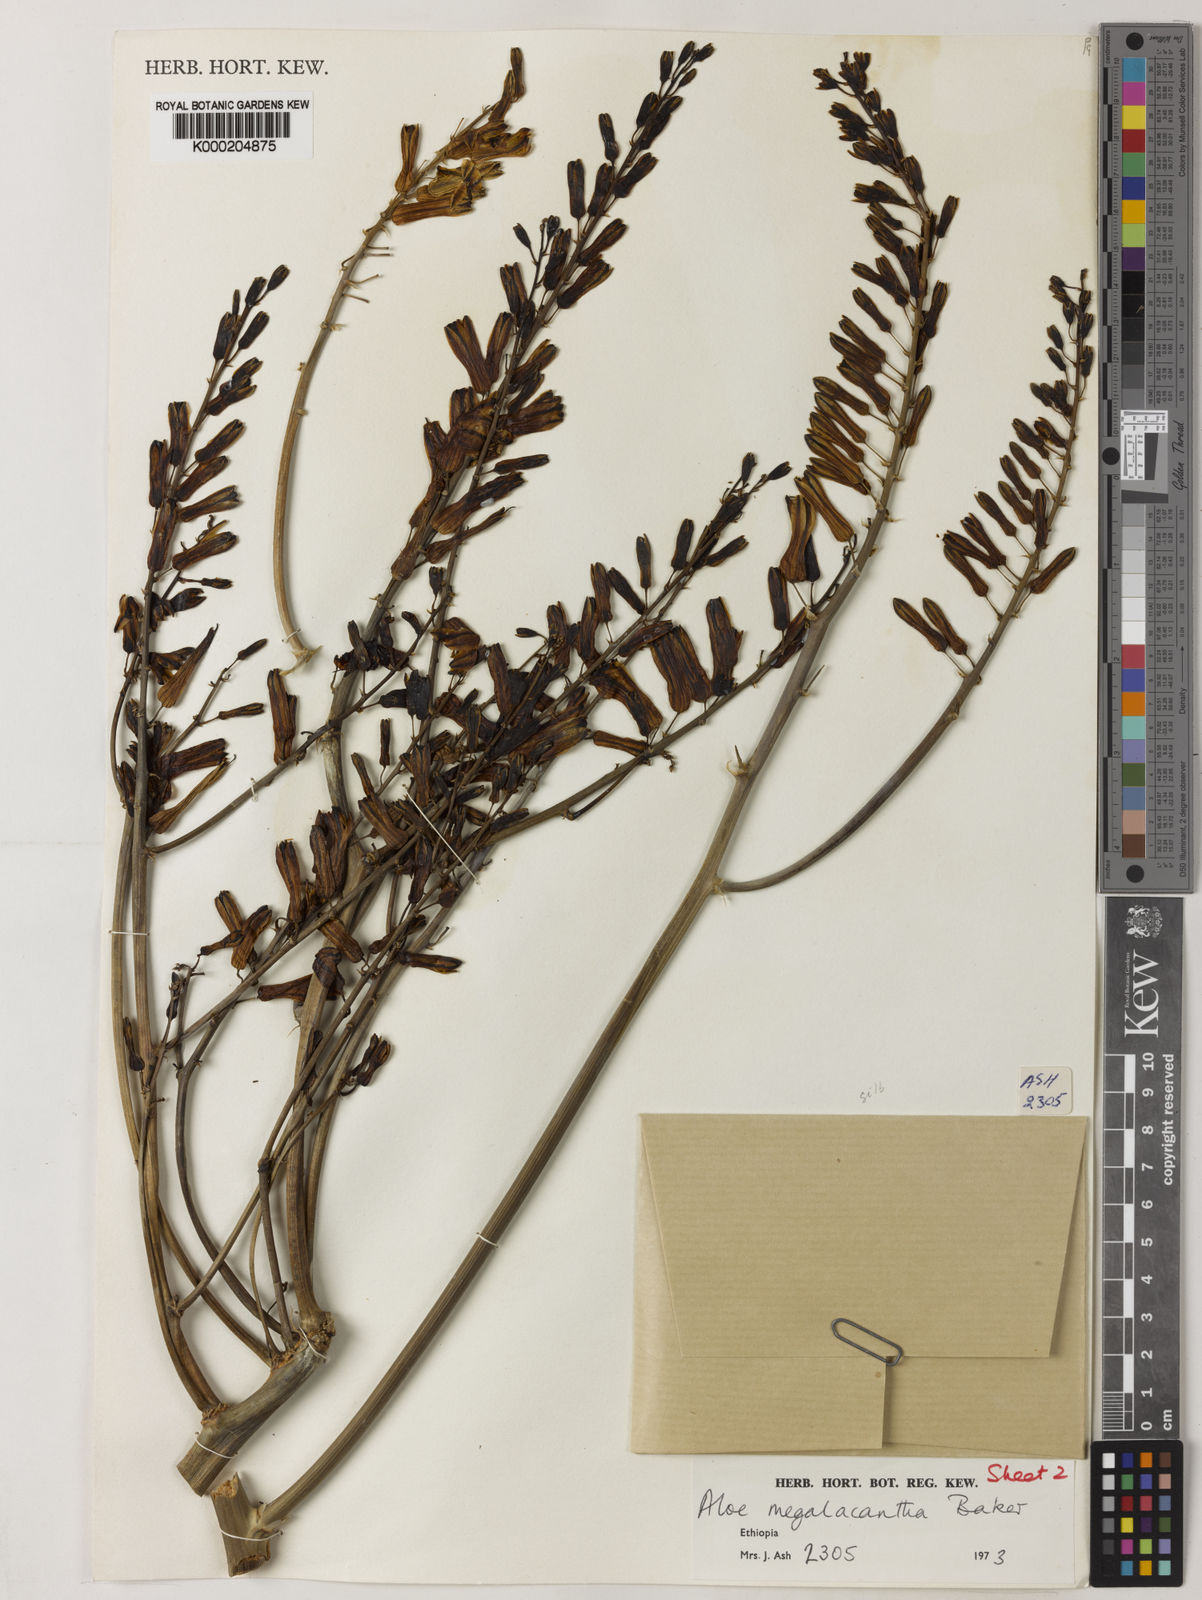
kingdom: Plantae
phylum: Tracheophyta
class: Liliopsida
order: Asparagales
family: Asphodelaceae
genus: Aloe
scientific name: Aloe gilbertii
